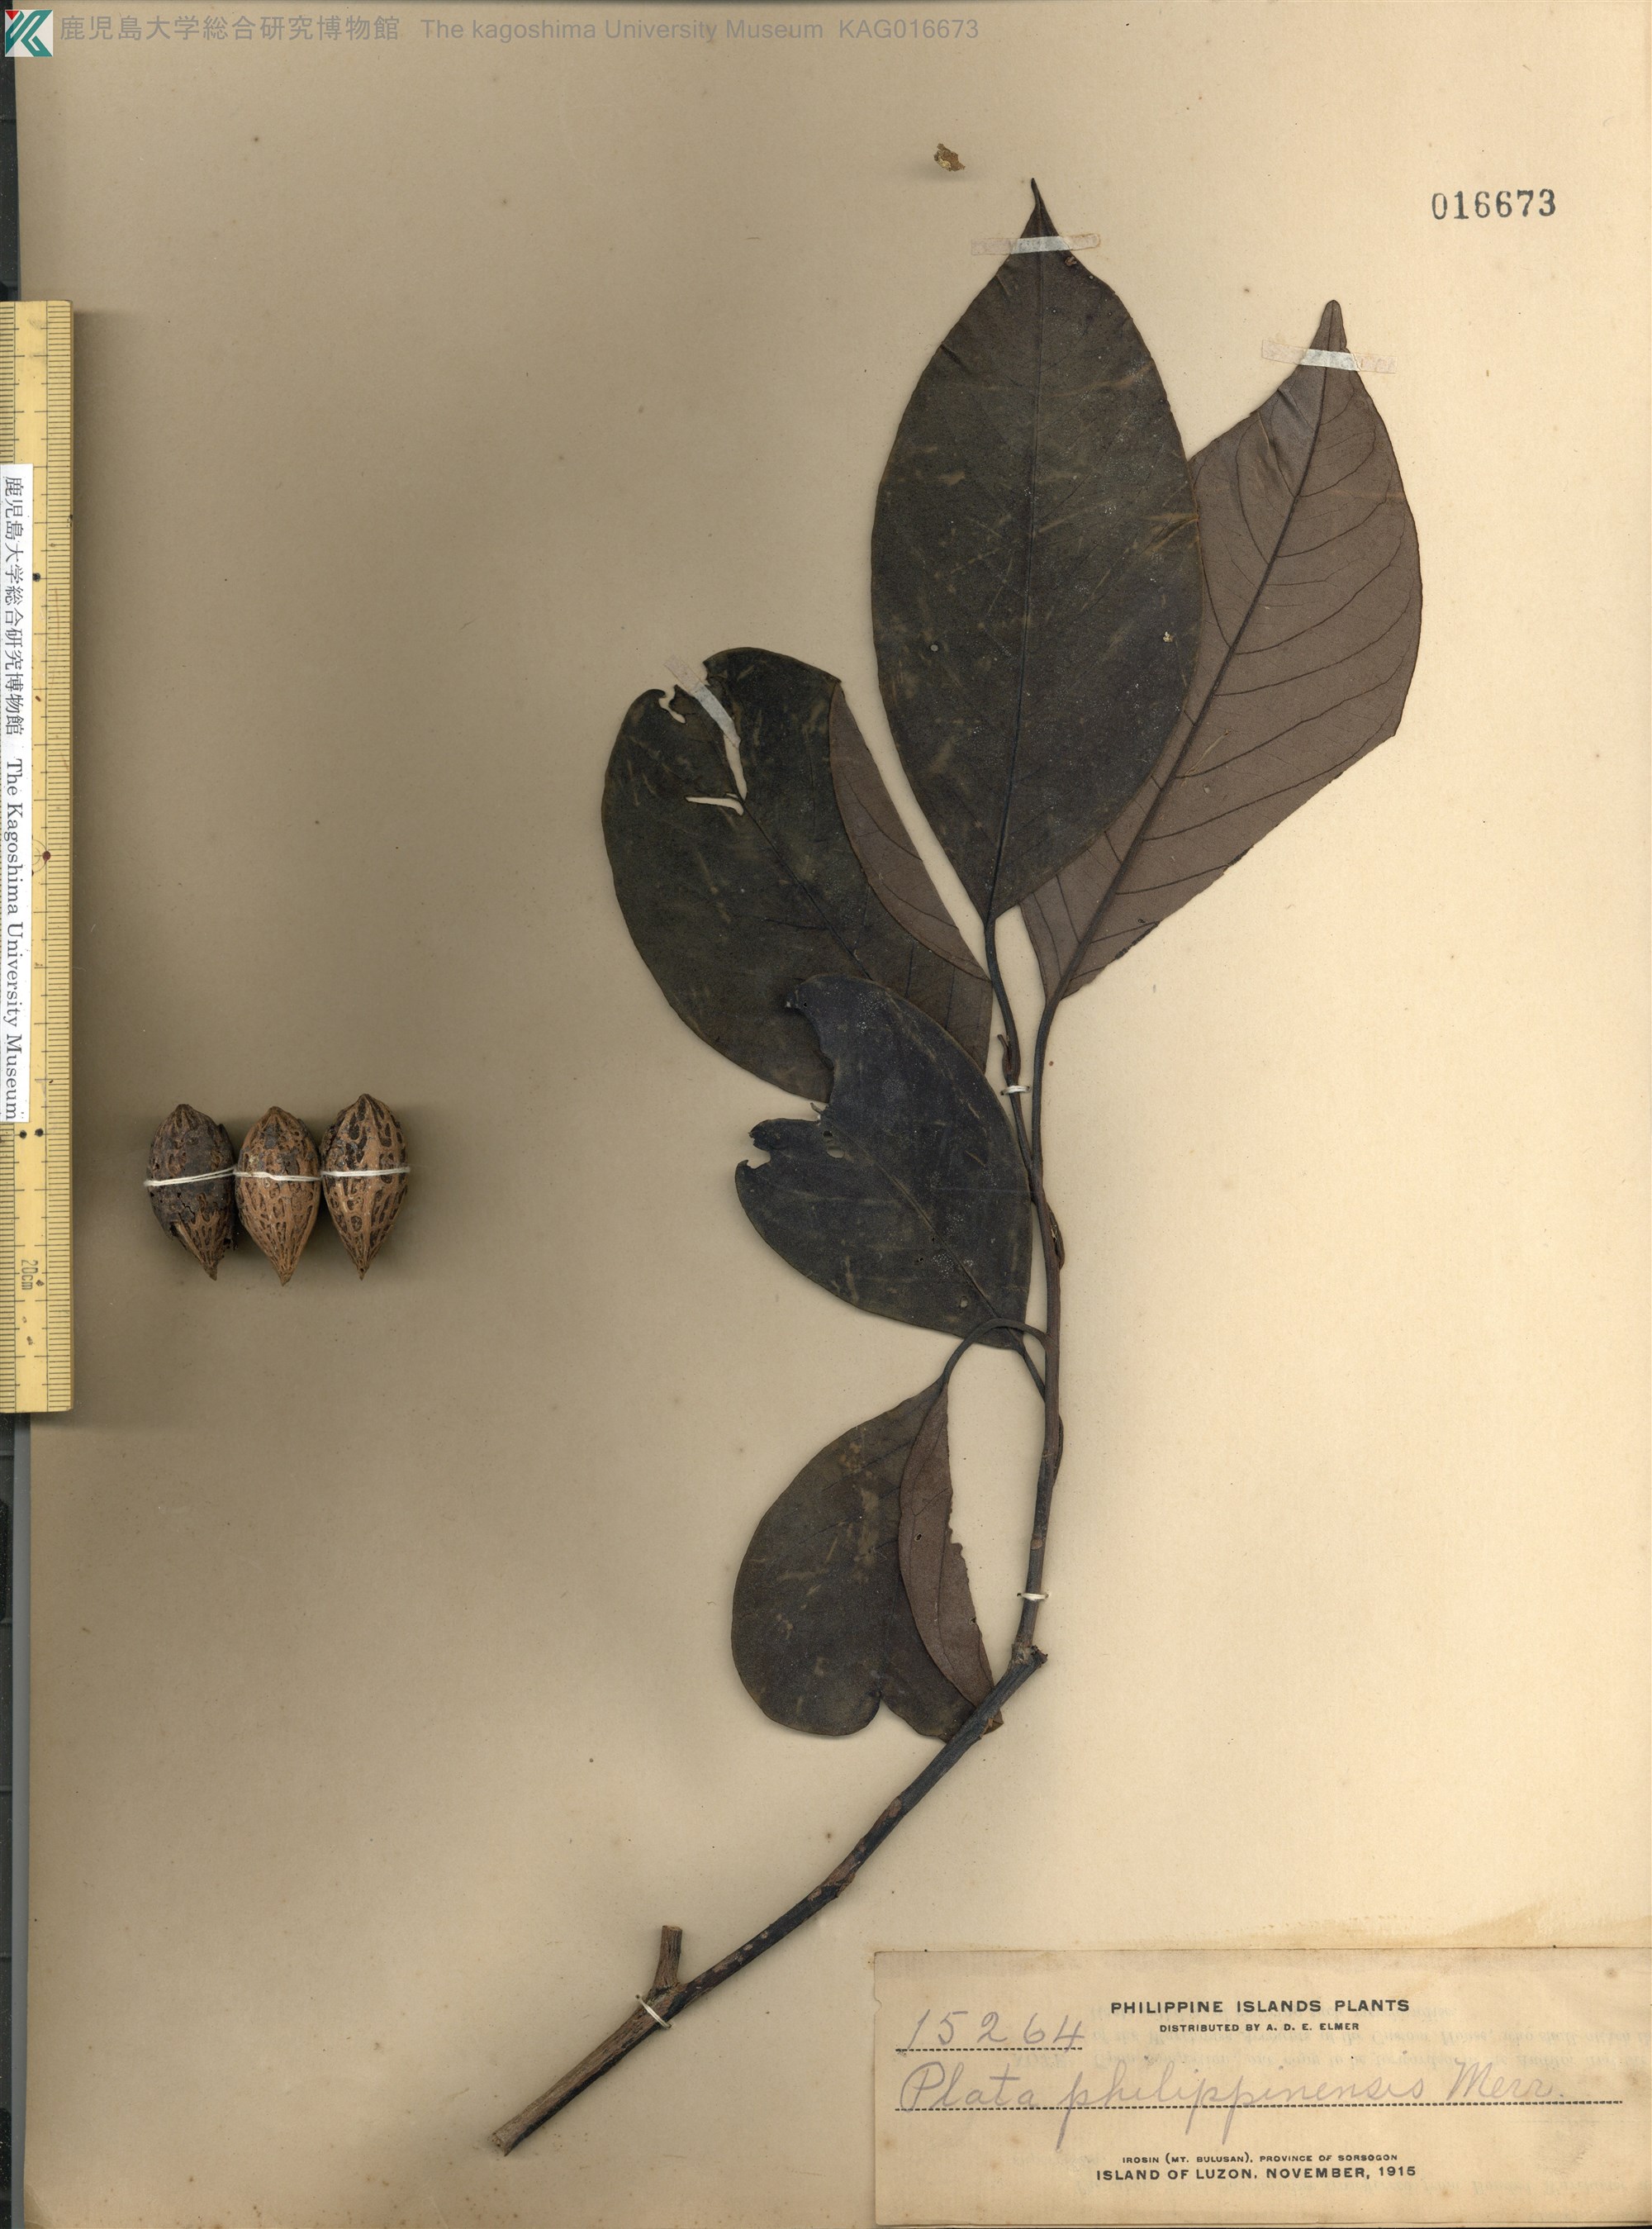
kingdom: Plantae
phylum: Tracheophyta
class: Magnoliopsida
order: Metteniusales
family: Metteniusaceae
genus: Platea
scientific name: Platea excelsa
